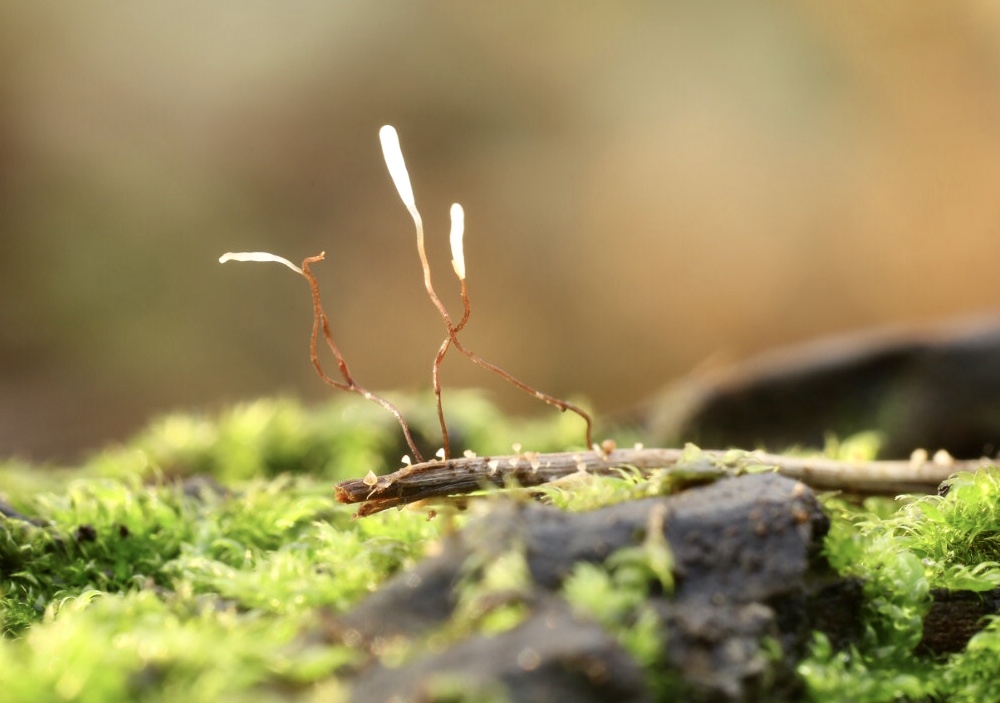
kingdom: Fungi
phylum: Basidiomycota
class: Agaricomycetes
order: Agaricales
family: Typhulaceae
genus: Typhula
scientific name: Typhula erythropus
